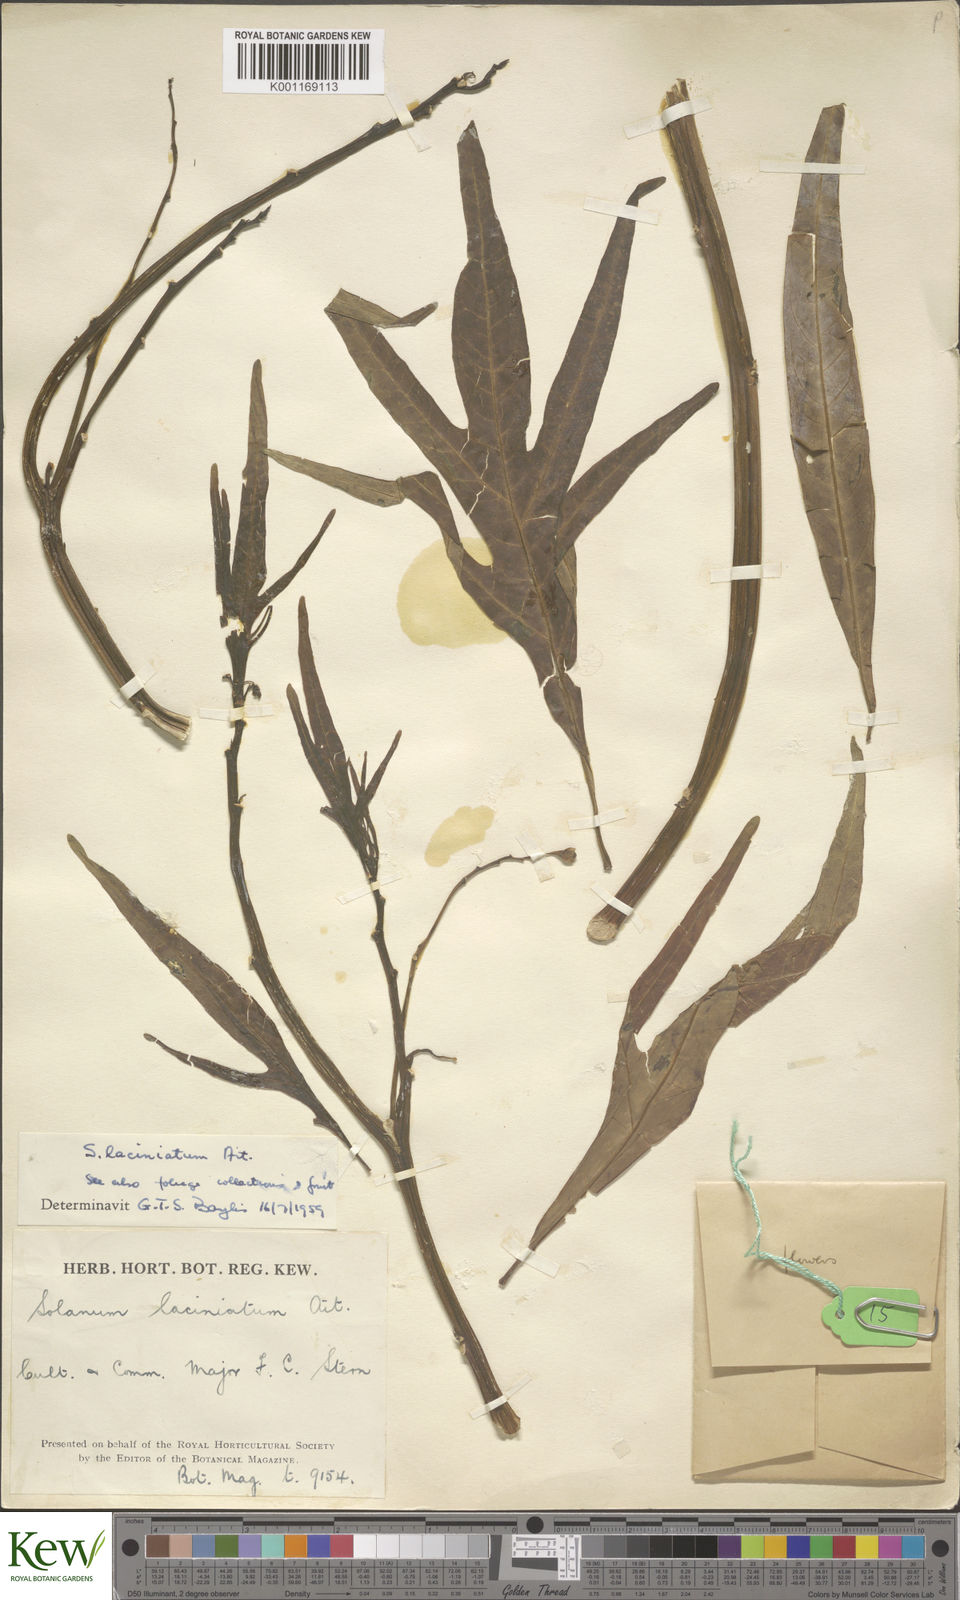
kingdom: Plantae
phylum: Tracheophyta
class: Magnoliopsida
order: Solanales
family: Solanaceae
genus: Solanum
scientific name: Solanum laciniatum
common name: Kangaroo-apple
